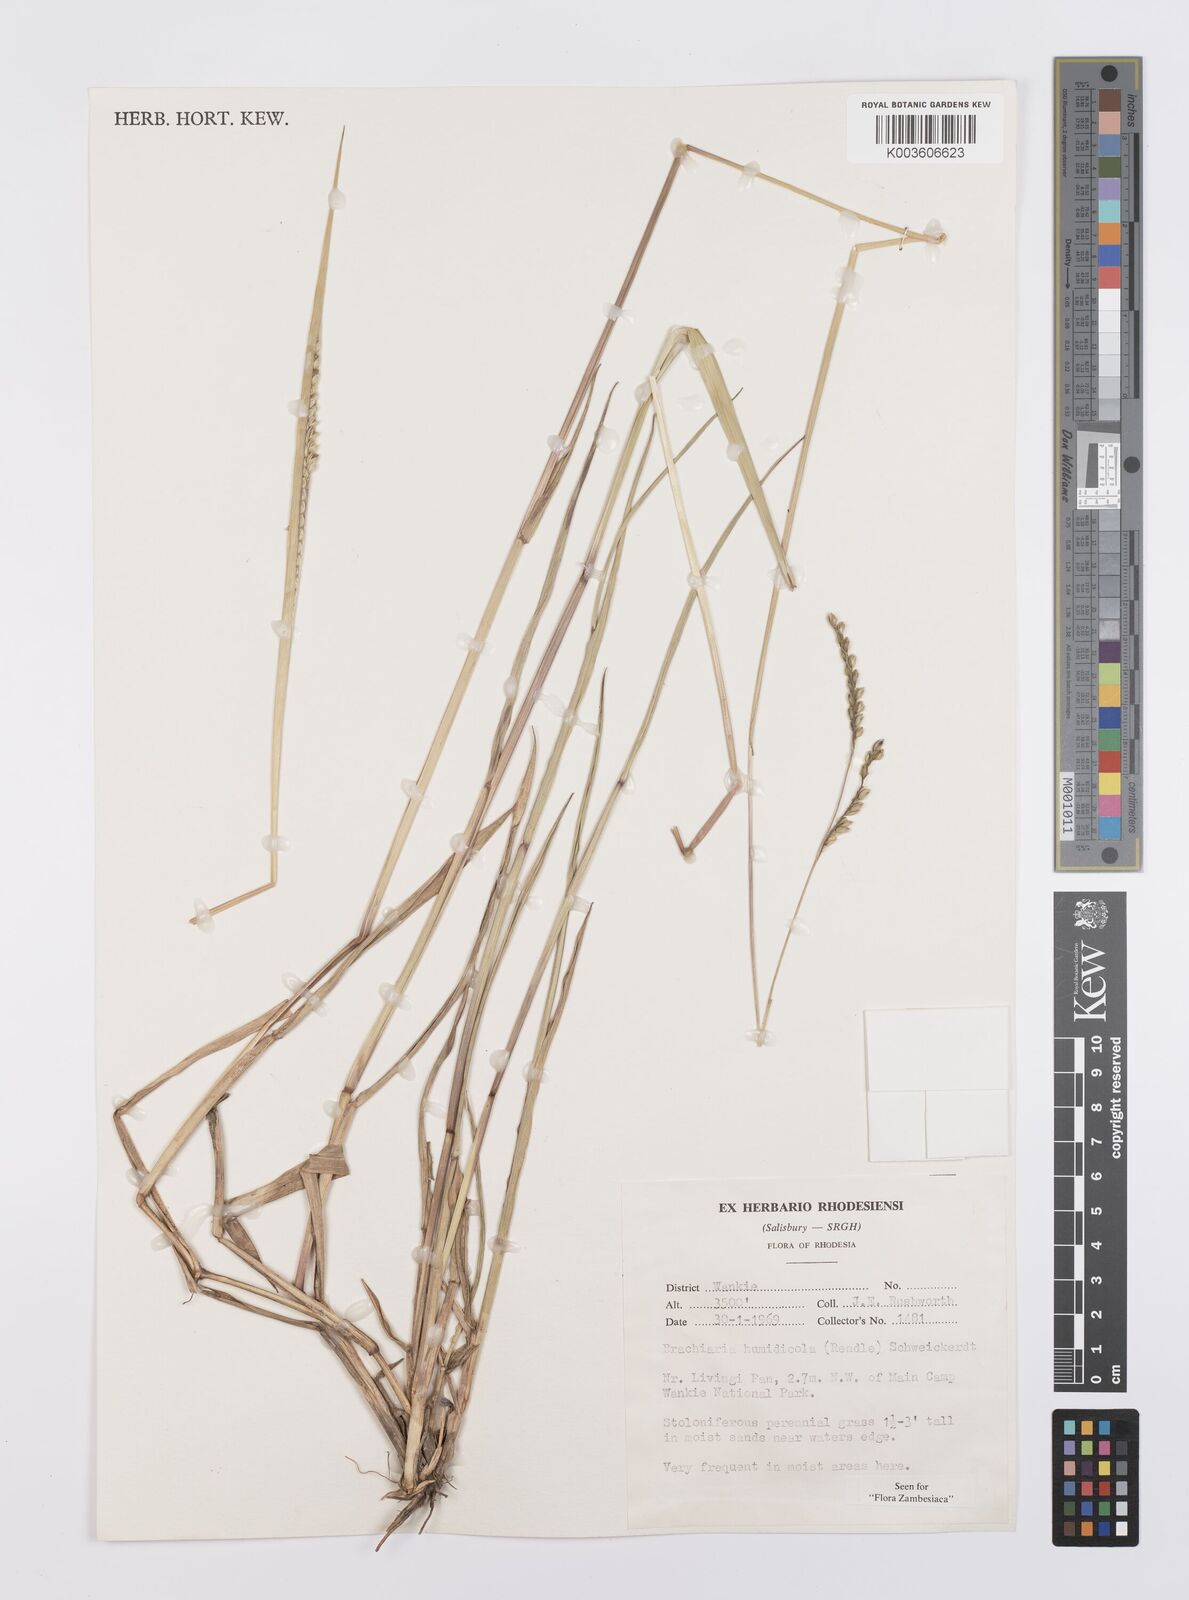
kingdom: Plantae
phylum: Tracheophyta
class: Liliopsida
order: Poales
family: Poaceae
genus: Urochloa
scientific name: Urochloa dictyoneura
